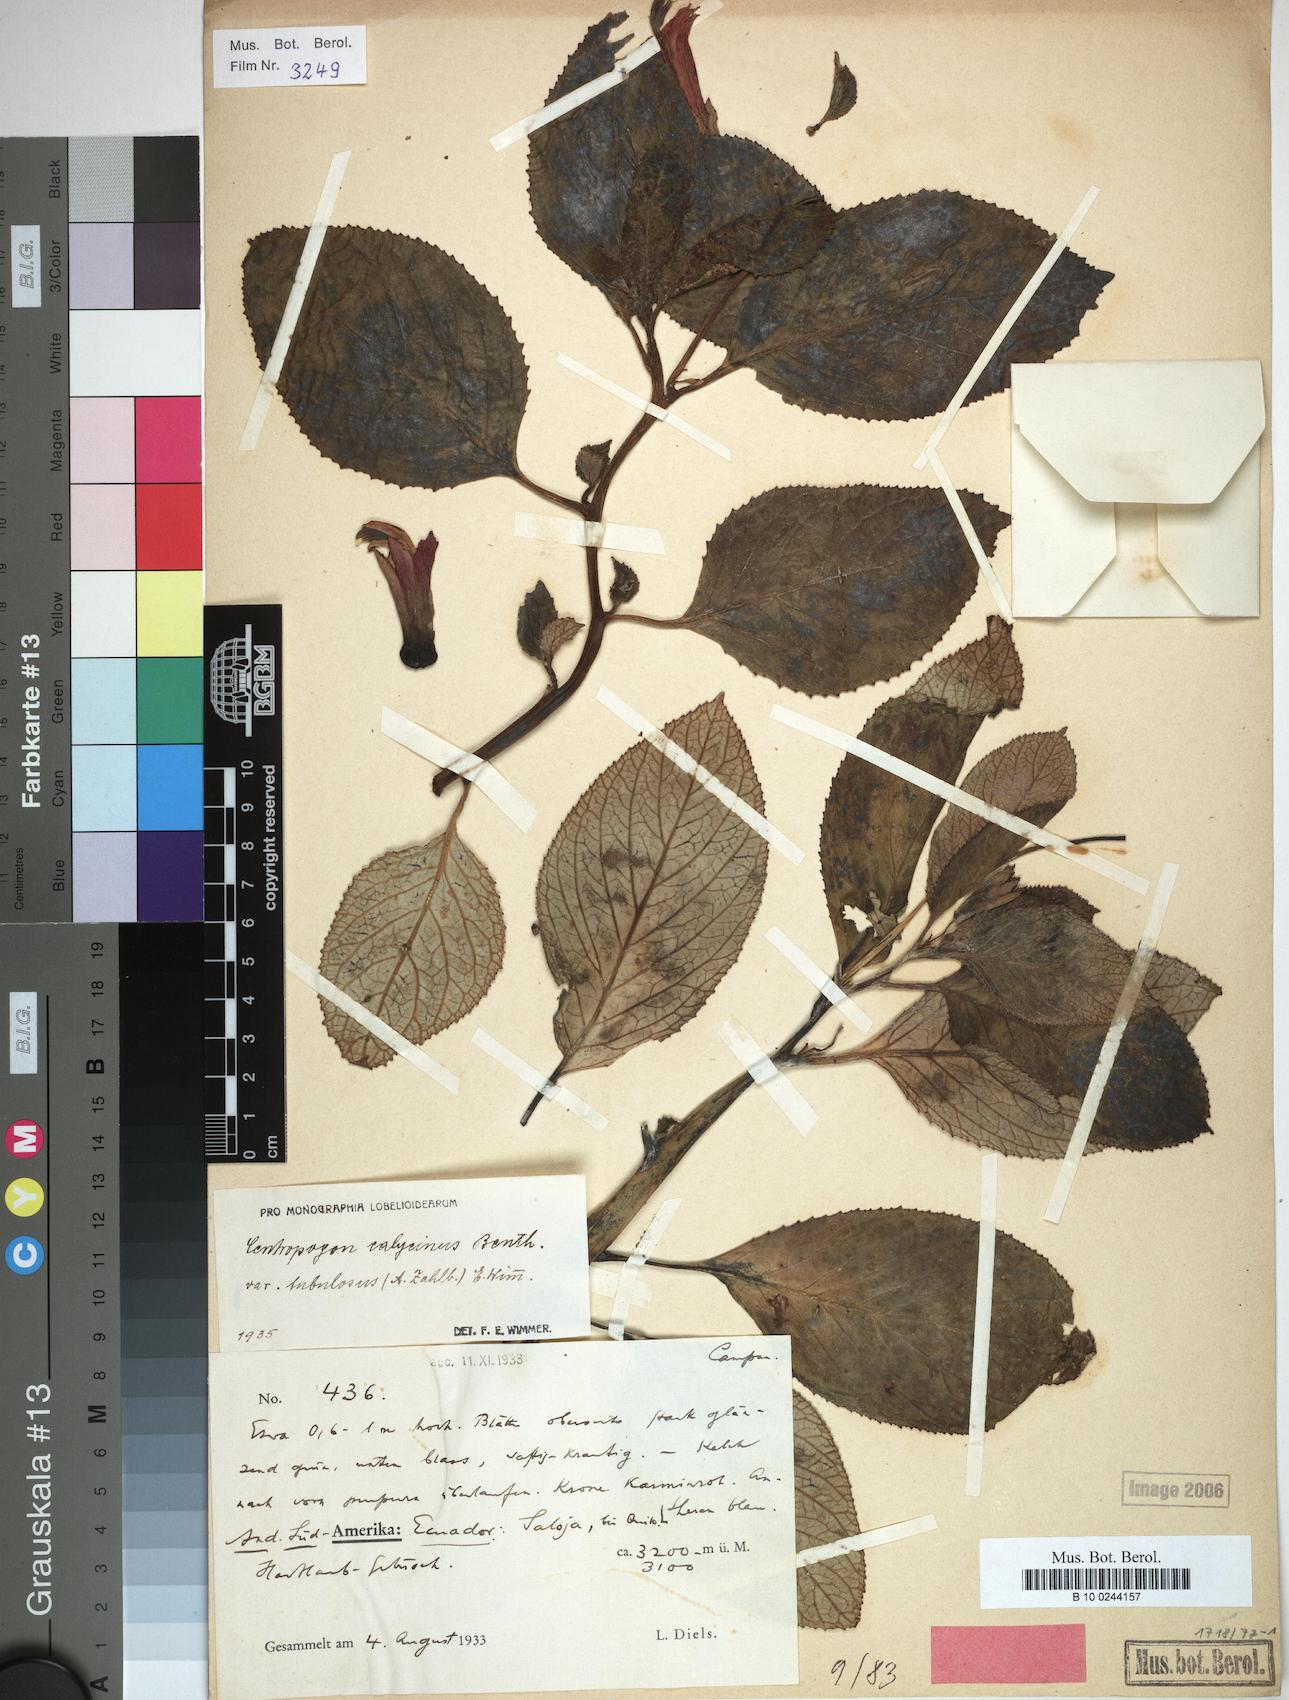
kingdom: Plantae
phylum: Tracheophyta
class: Magnoliopsida
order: Asterales
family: Campanulaceae
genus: Centropogon
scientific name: Centropogon calycinus
